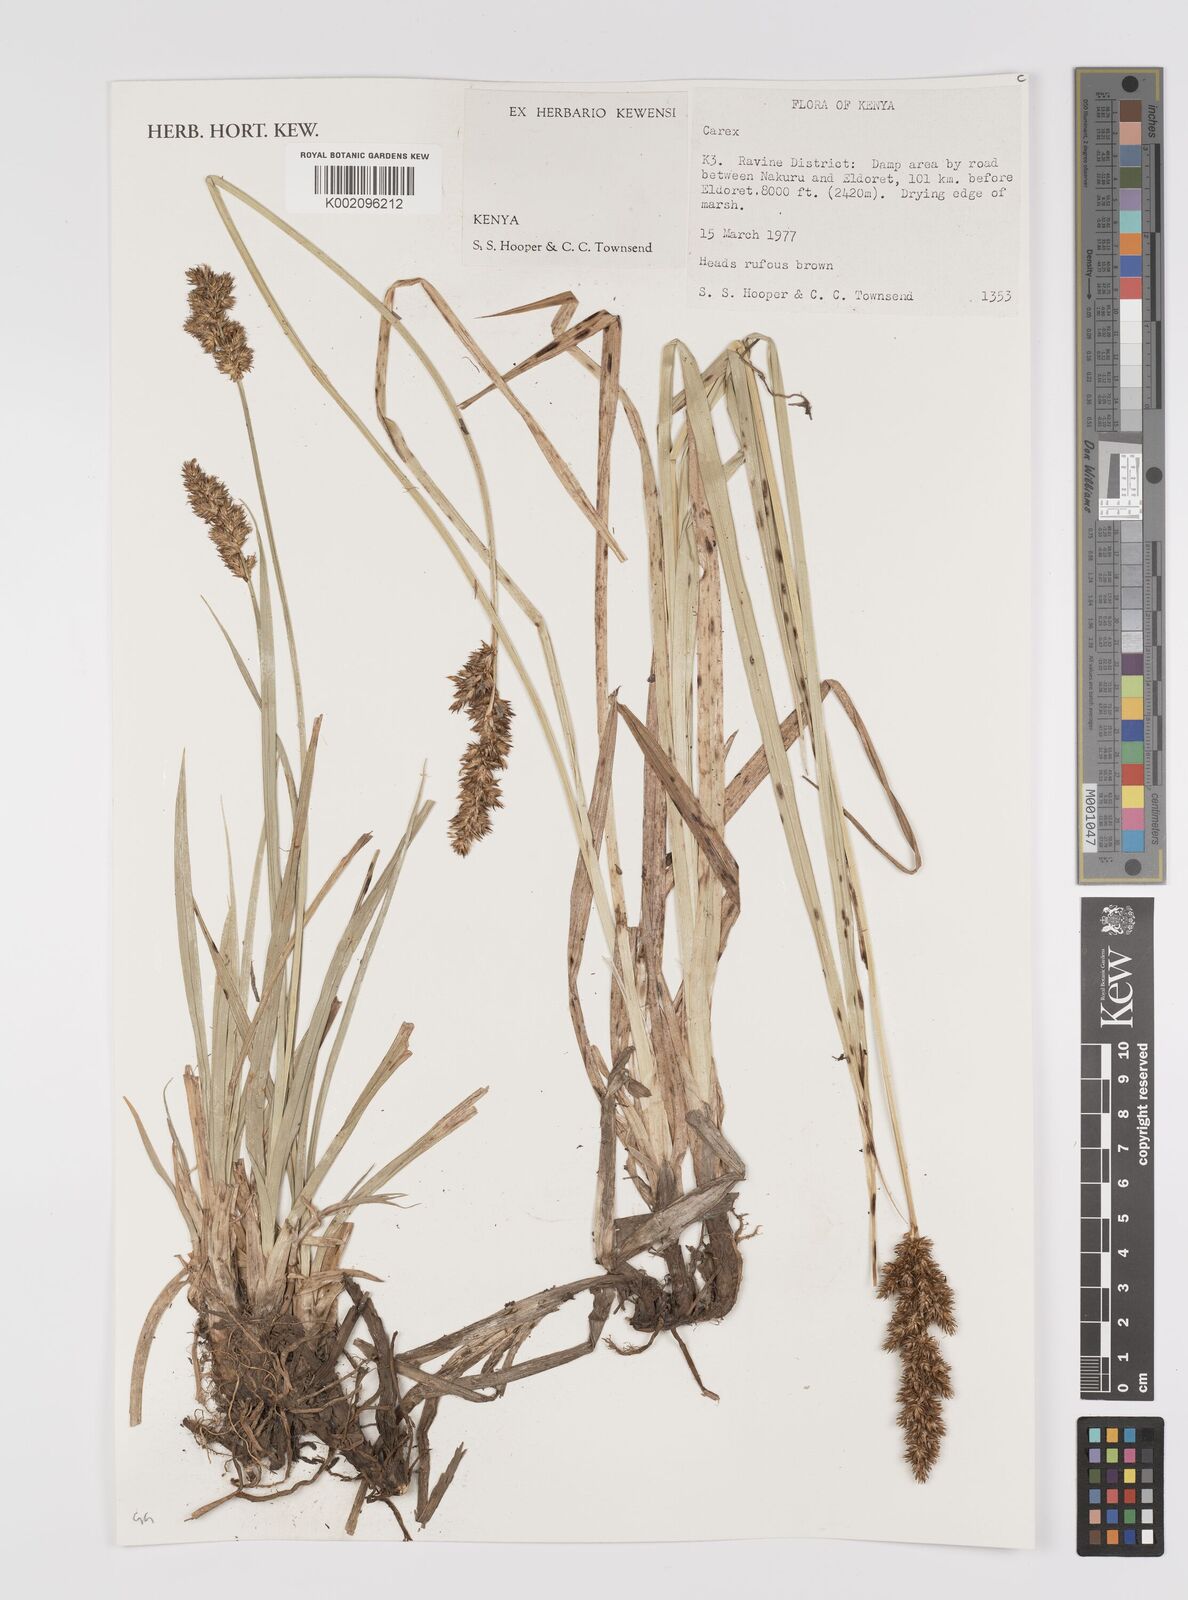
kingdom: Plantae
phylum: Tracheophyta
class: Liliopsida
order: Poales
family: Cyperaceae
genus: Carex
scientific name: Carex
